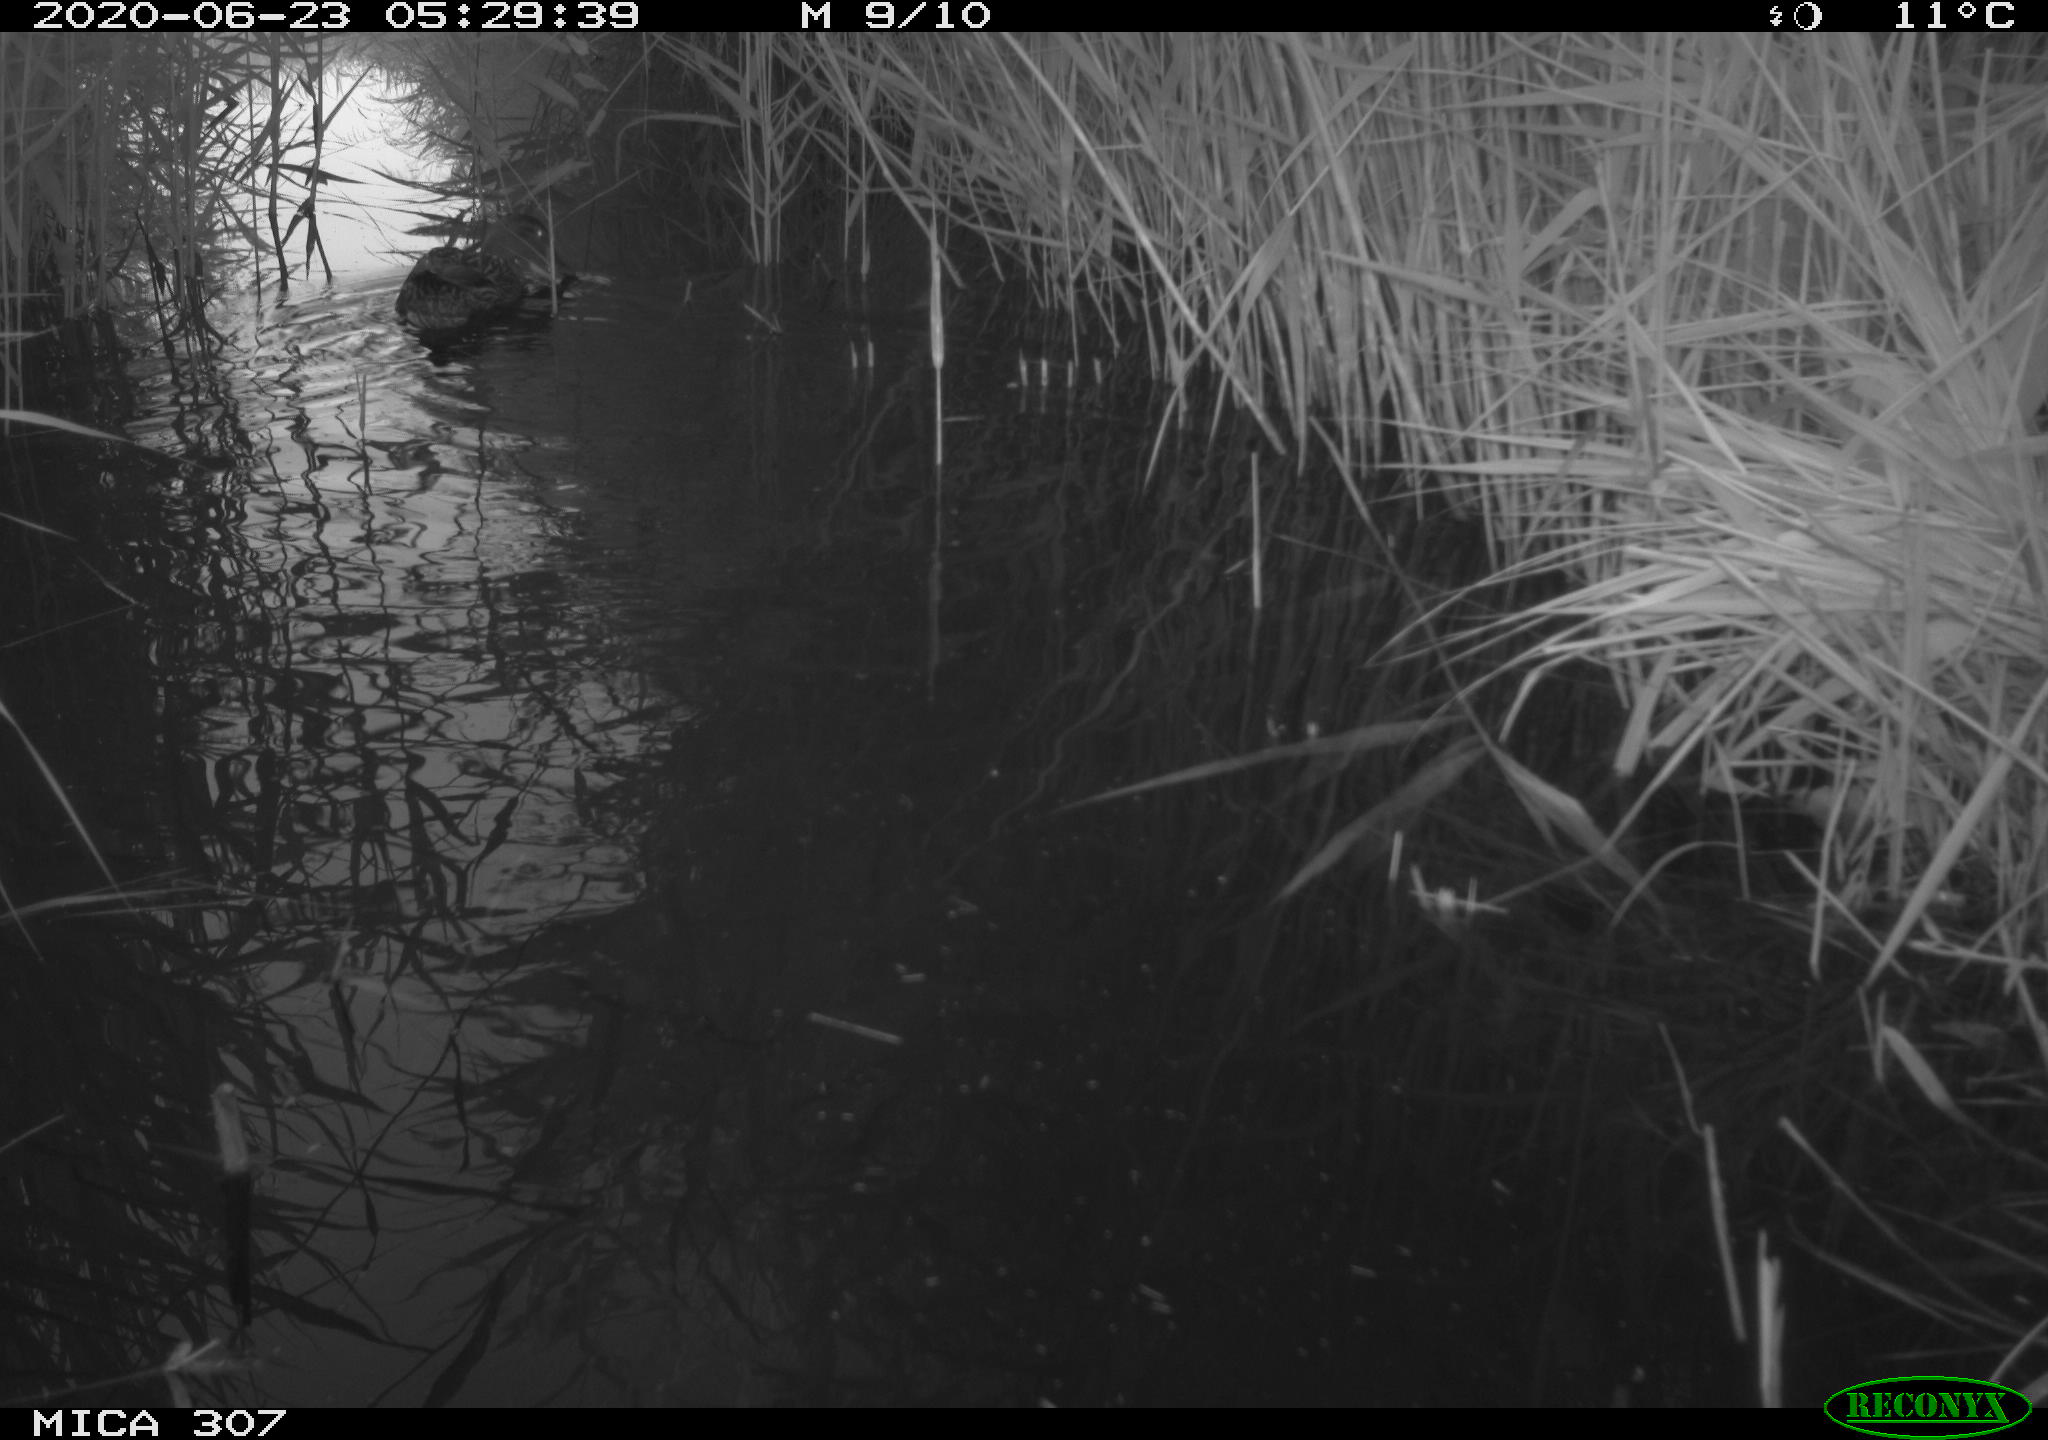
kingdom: Animalia
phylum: Chordata
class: Aves
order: Anseriformes
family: Anatidae
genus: Anas
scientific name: Anas platyrhynchos
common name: Mallard
